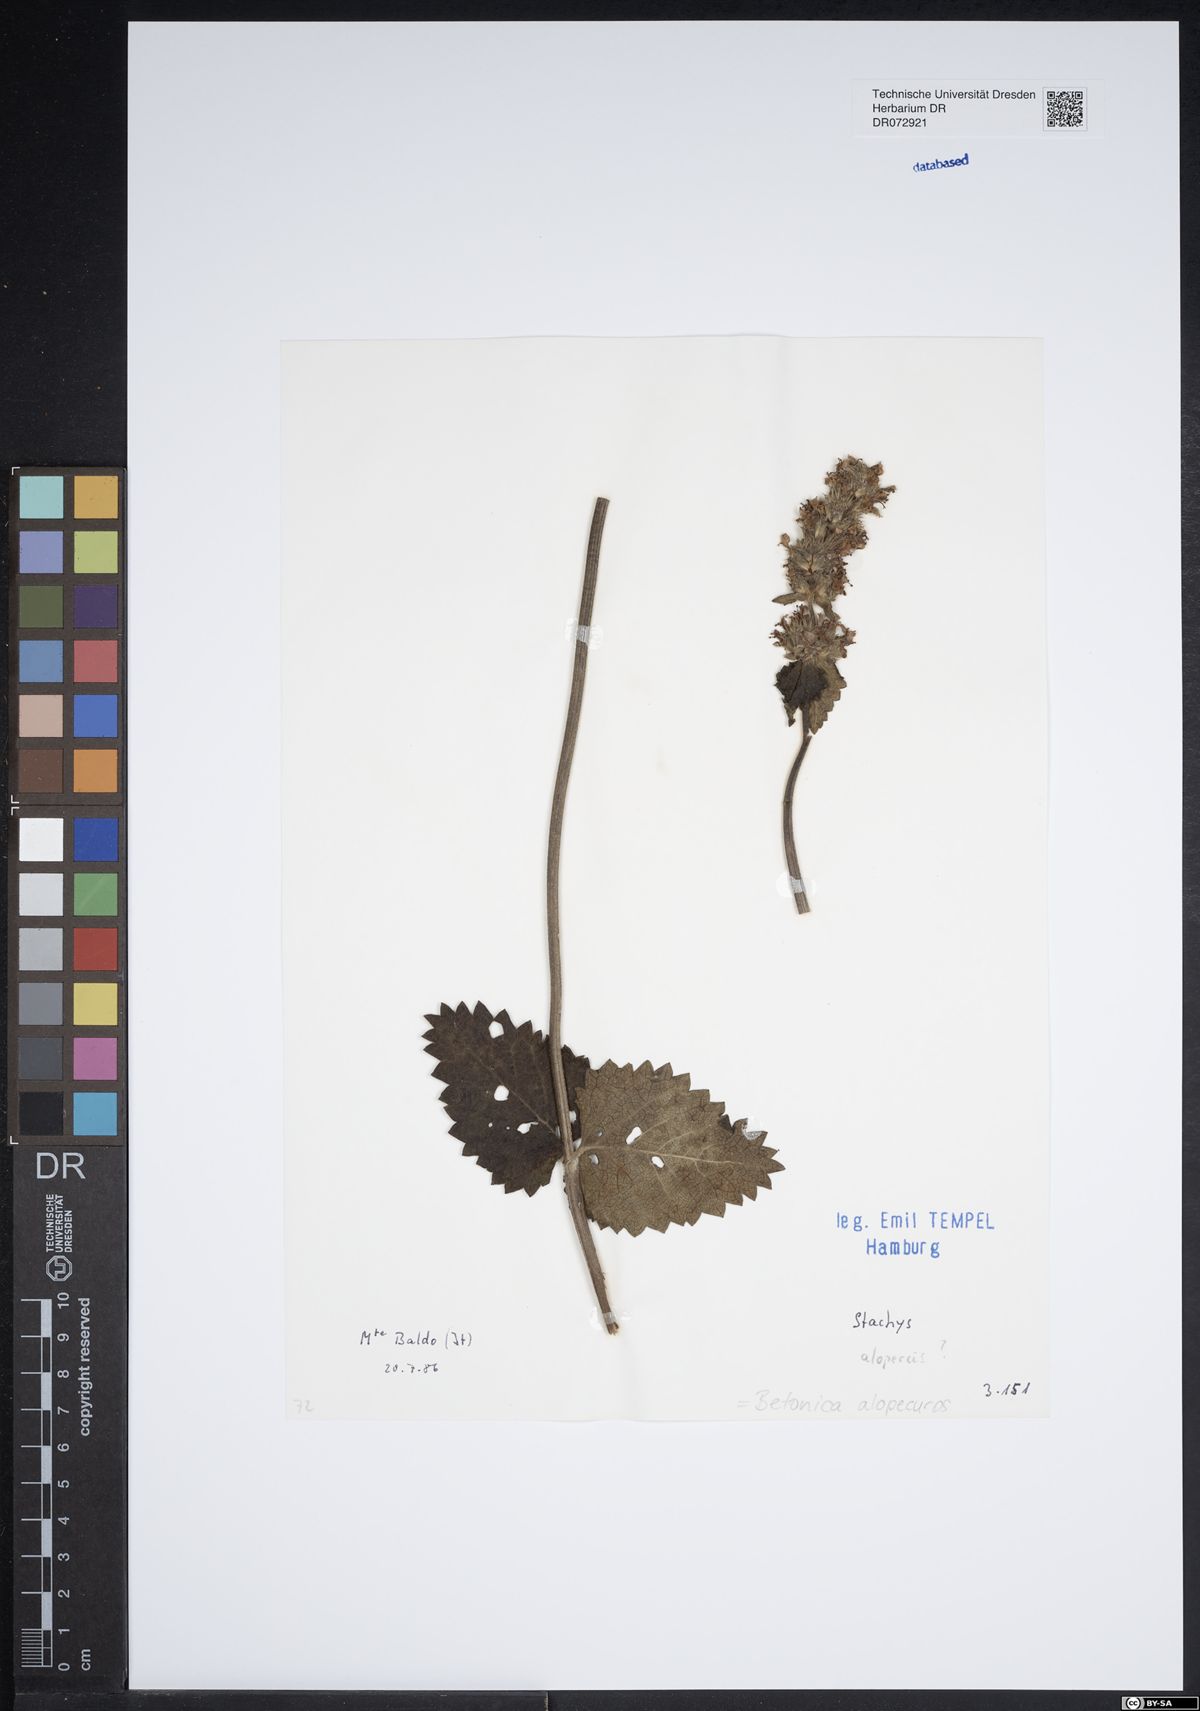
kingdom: Plantae
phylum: Tracheophyta
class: Magnoliopsida
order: Lamiales
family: Lamiaceae
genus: Betonica
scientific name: Betonica alopecuros
